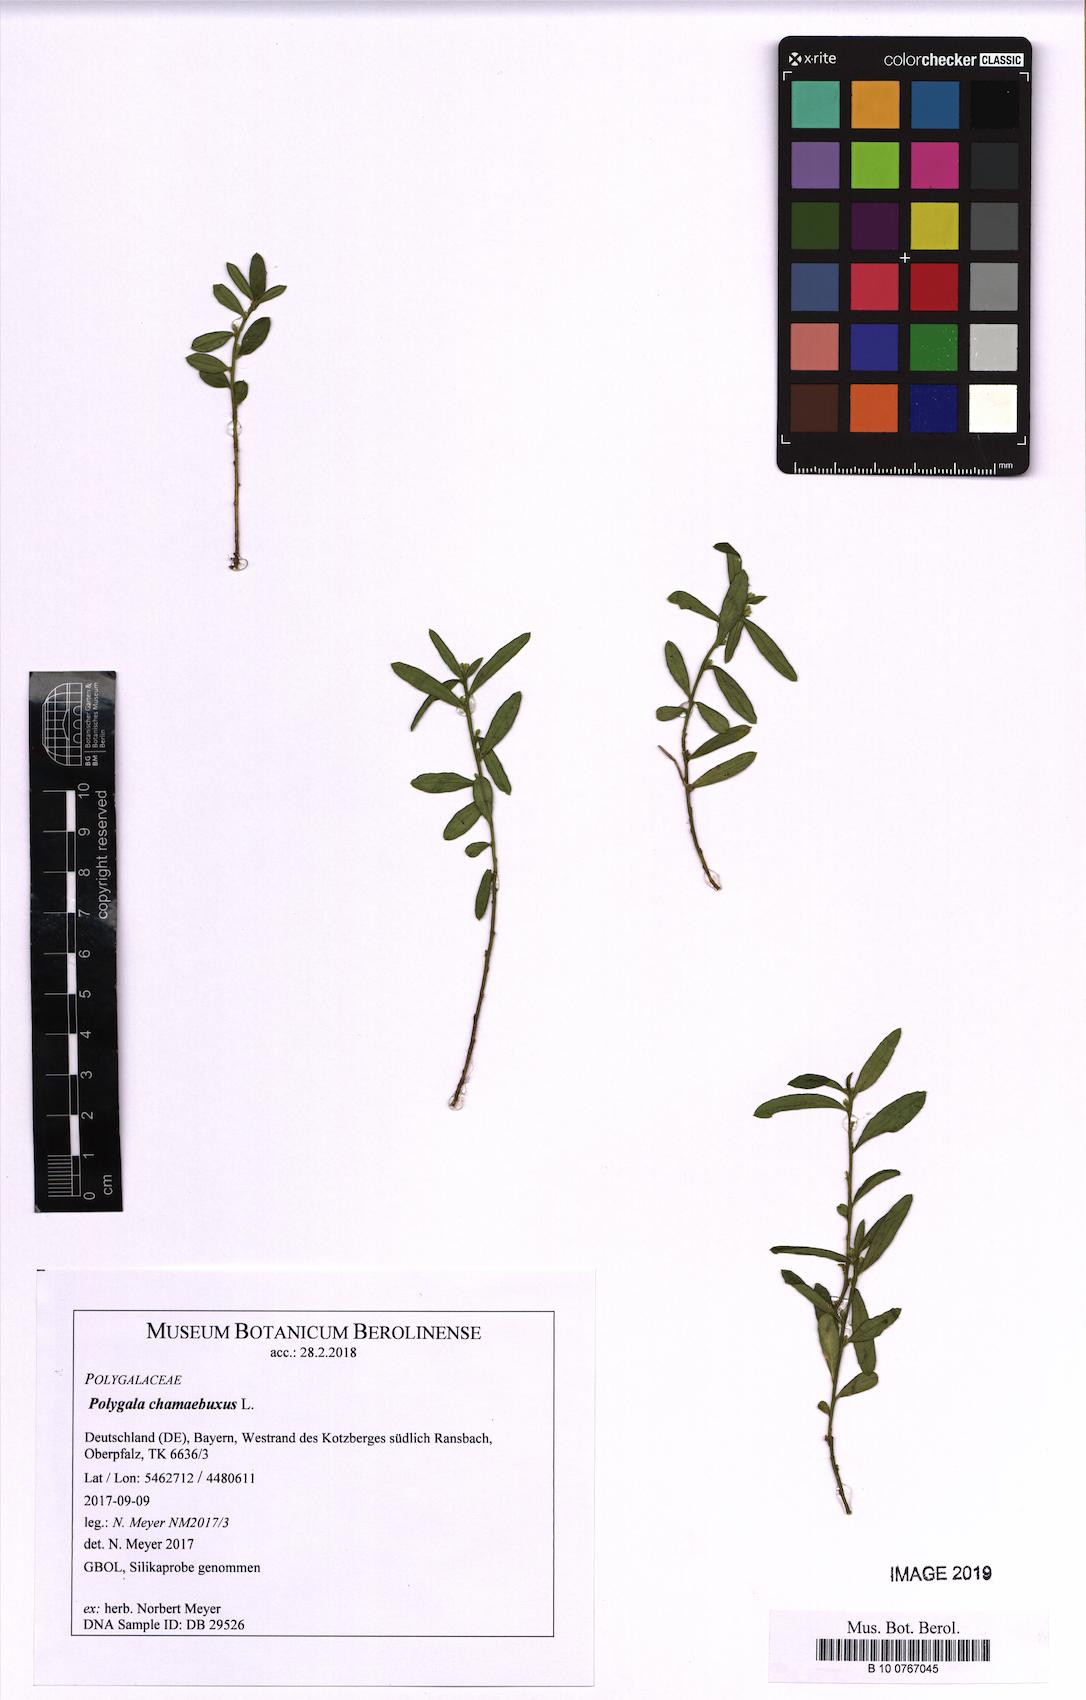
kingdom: Plantae
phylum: Tracheophyta
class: Magnoliopsida
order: Fabales
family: Polygalaceae
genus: Polygaloides
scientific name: Polygaloides chamaebuxus
